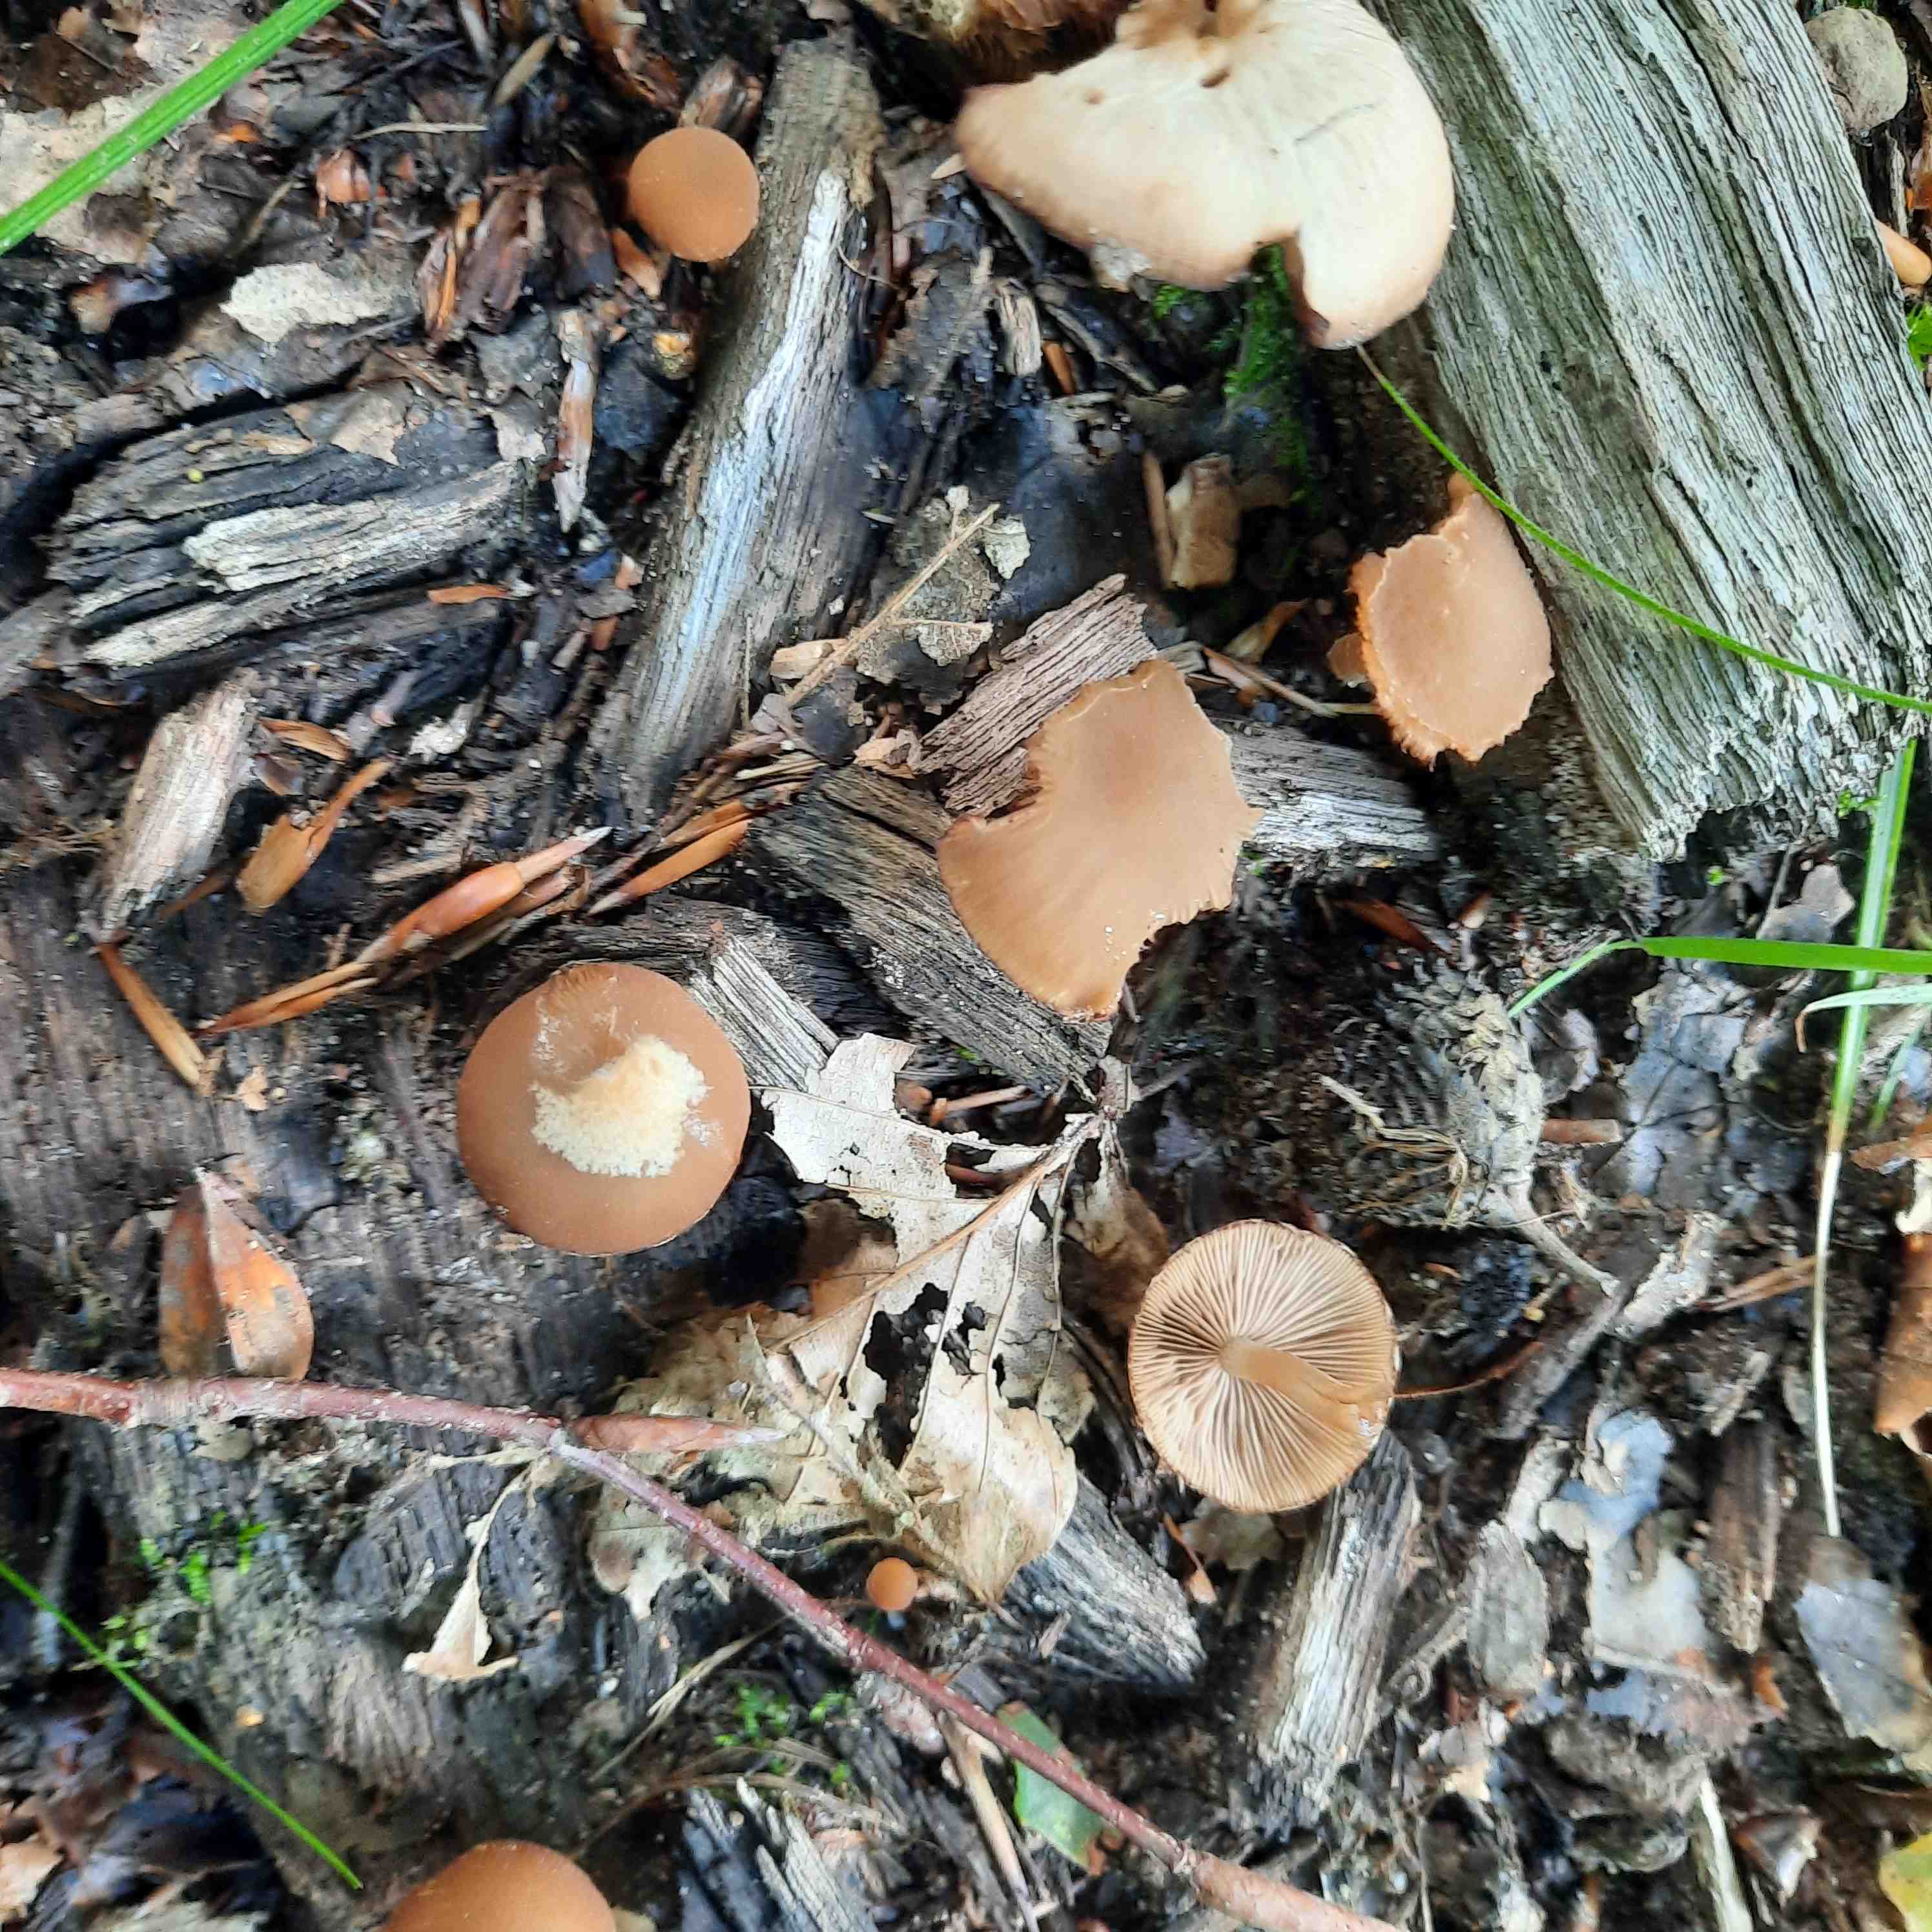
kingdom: Fungi
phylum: Basidiomycota
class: Agaricomycetes
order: Agaricales
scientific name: Agaricales
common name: champignonordenen
